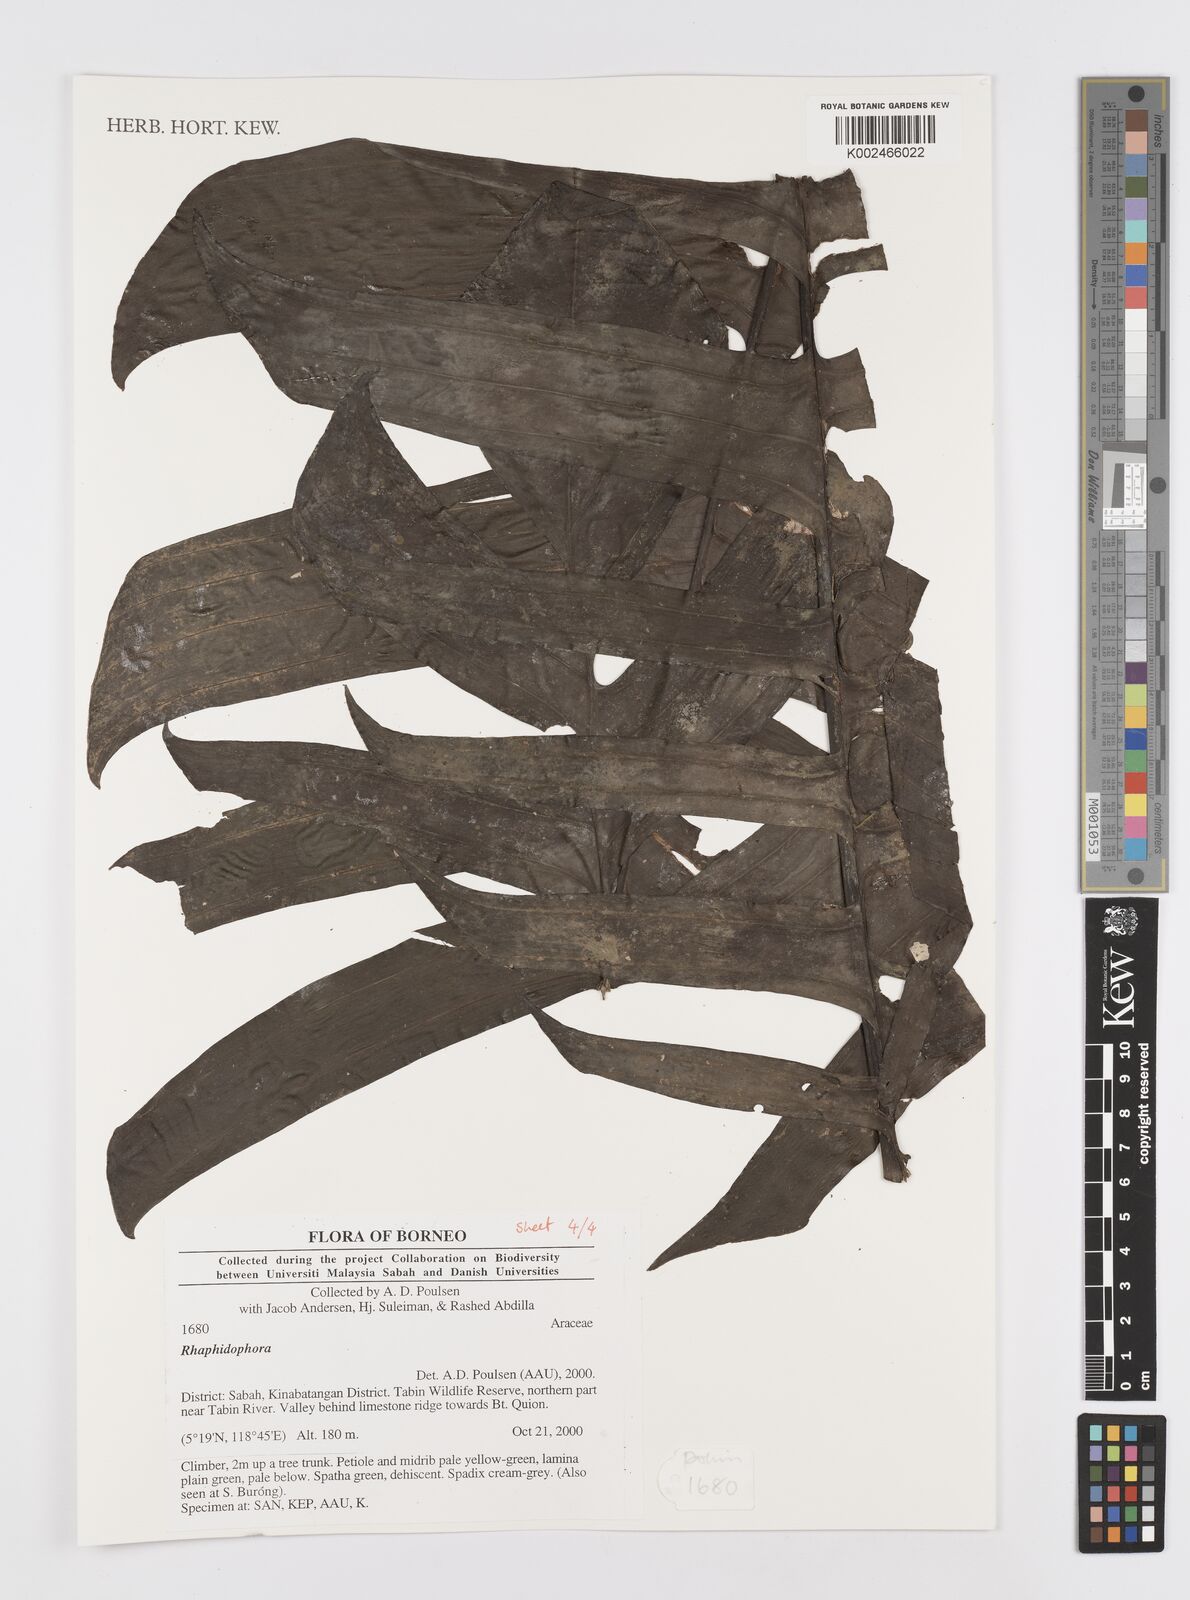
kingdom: Plantae
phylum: Tracheophyta
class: Liliopsida
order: Alismatales
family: Araceae
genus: Rhaphidophora
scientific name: Rhaphidophora
